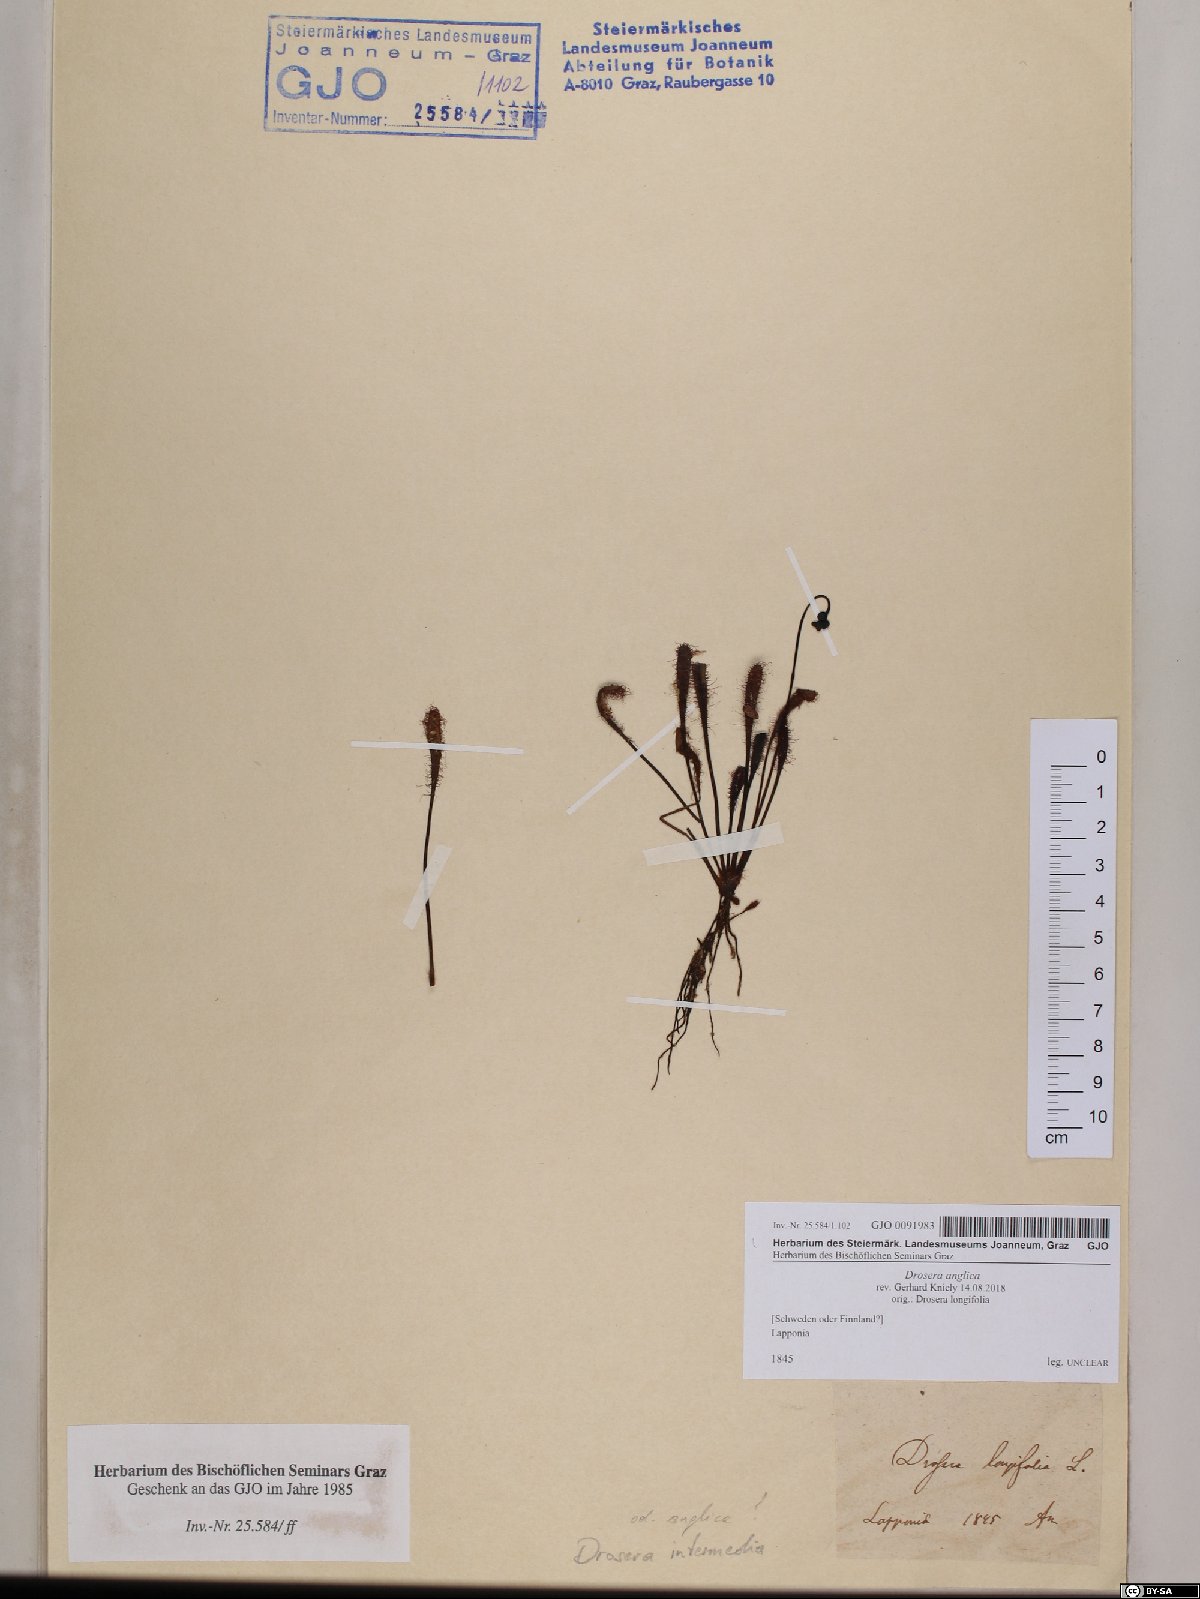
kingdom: Plantae
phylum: Tracheophyta
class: Magnoliopsida
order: Caryophyllales
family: Droseraceae
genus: Drosera
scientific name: Drosera anglica
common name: Great sundew
